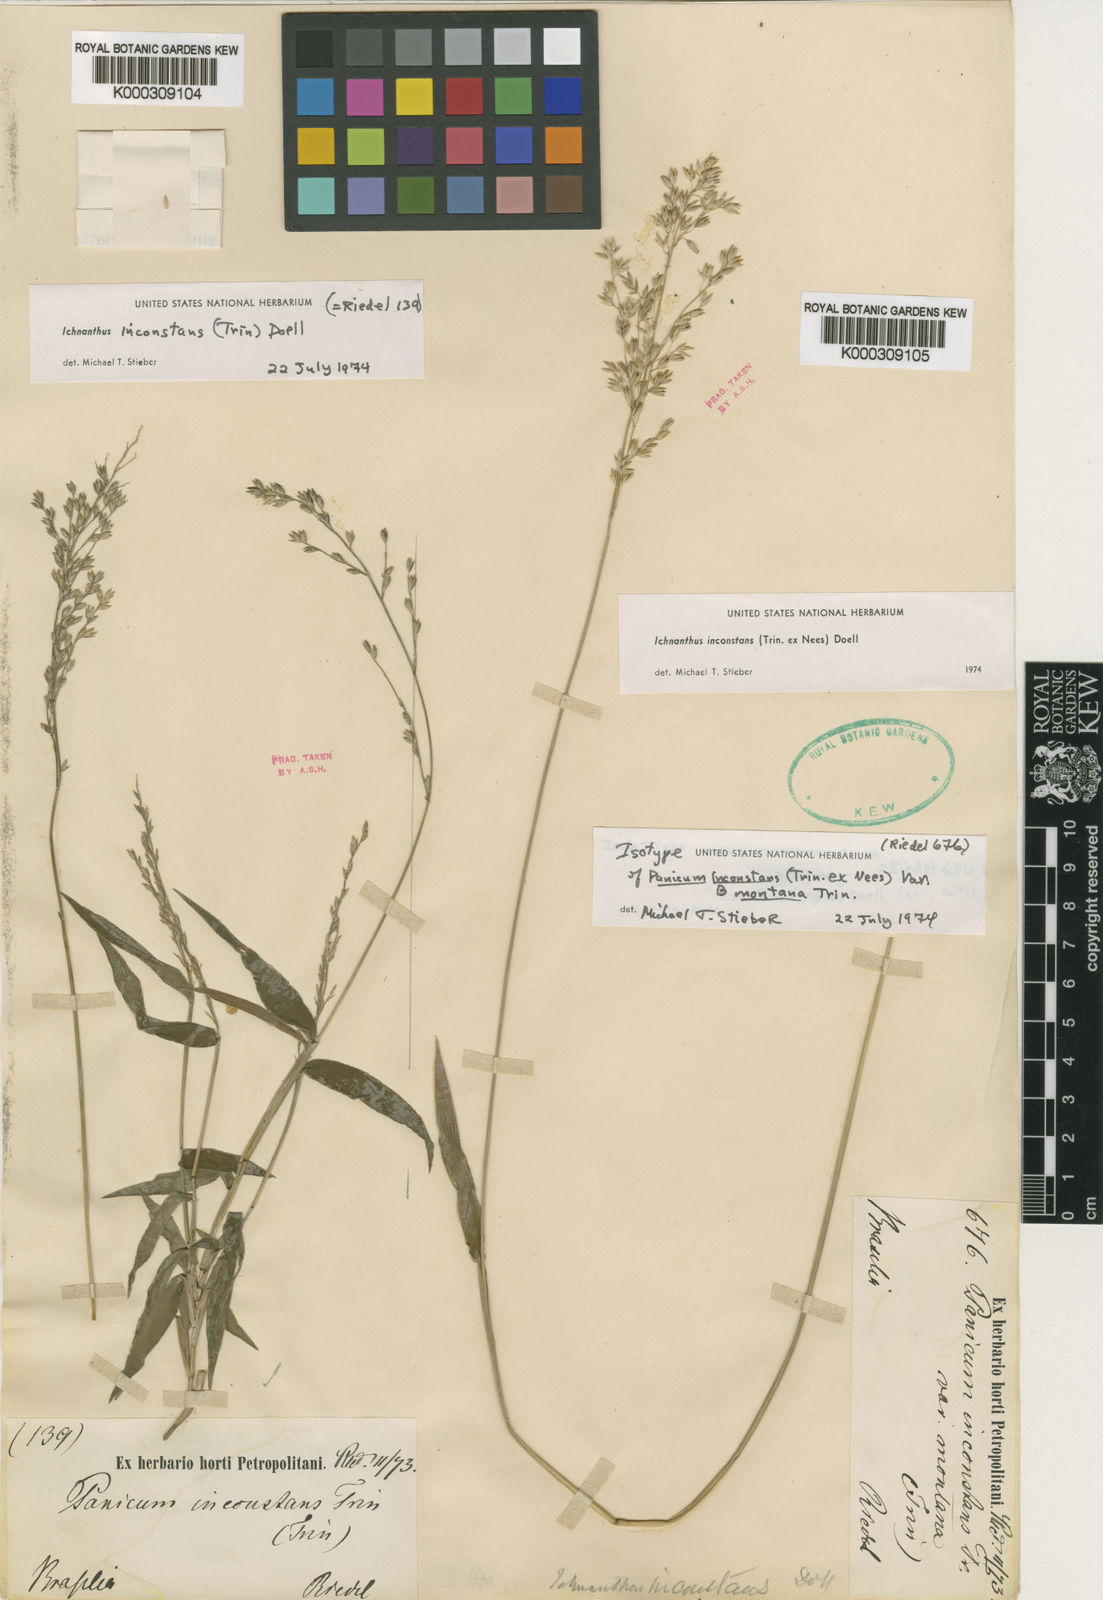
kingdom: Plantae
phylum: Tracheophyta
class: Liliopsida
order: Poales
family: Poaceae
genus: Ichnanthus
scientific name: Ichnanthus inconstans
